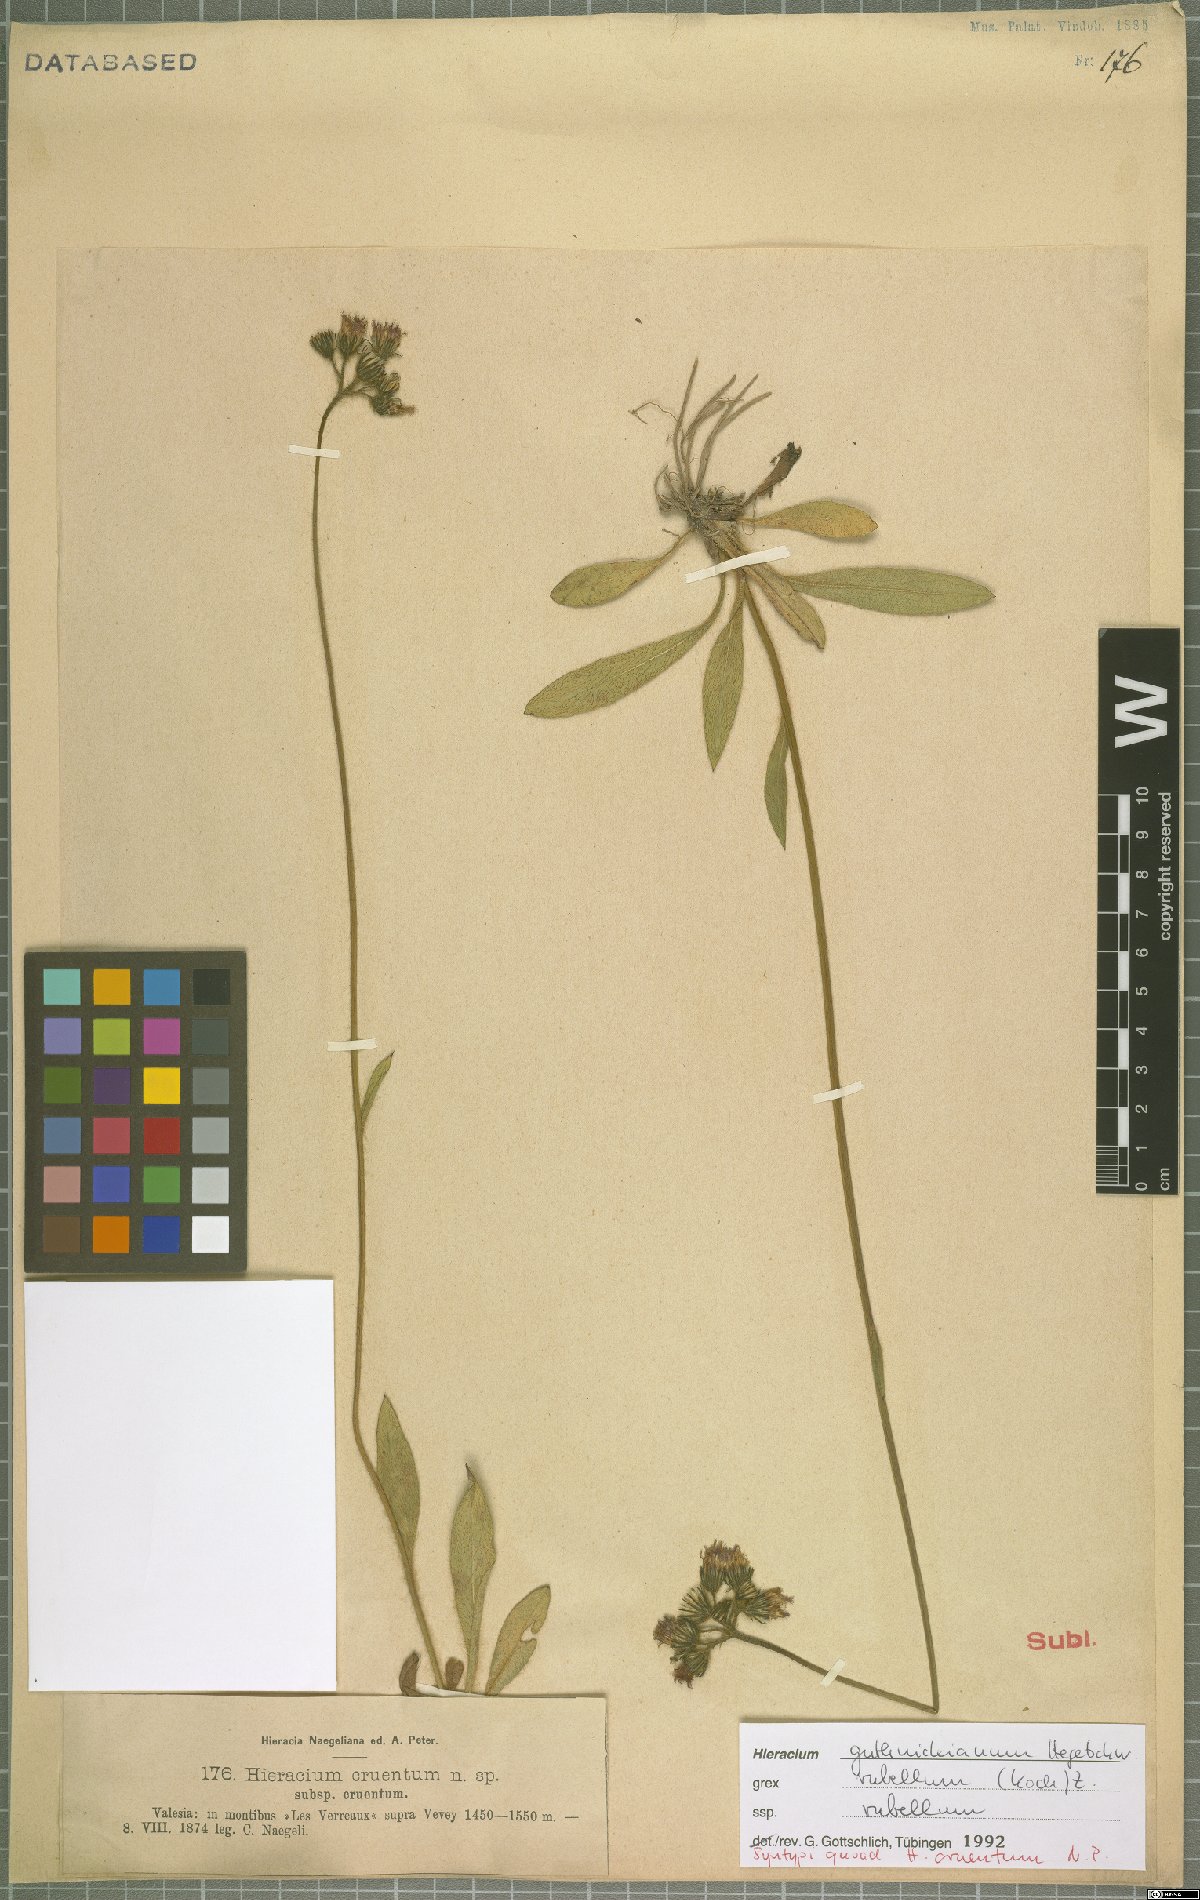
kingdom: Plantae
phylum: Tracheophyta
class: Magnoliopsida
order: Asterales
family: Asteraceae
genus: Pilosella
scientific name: Pilosella guthnikiana
